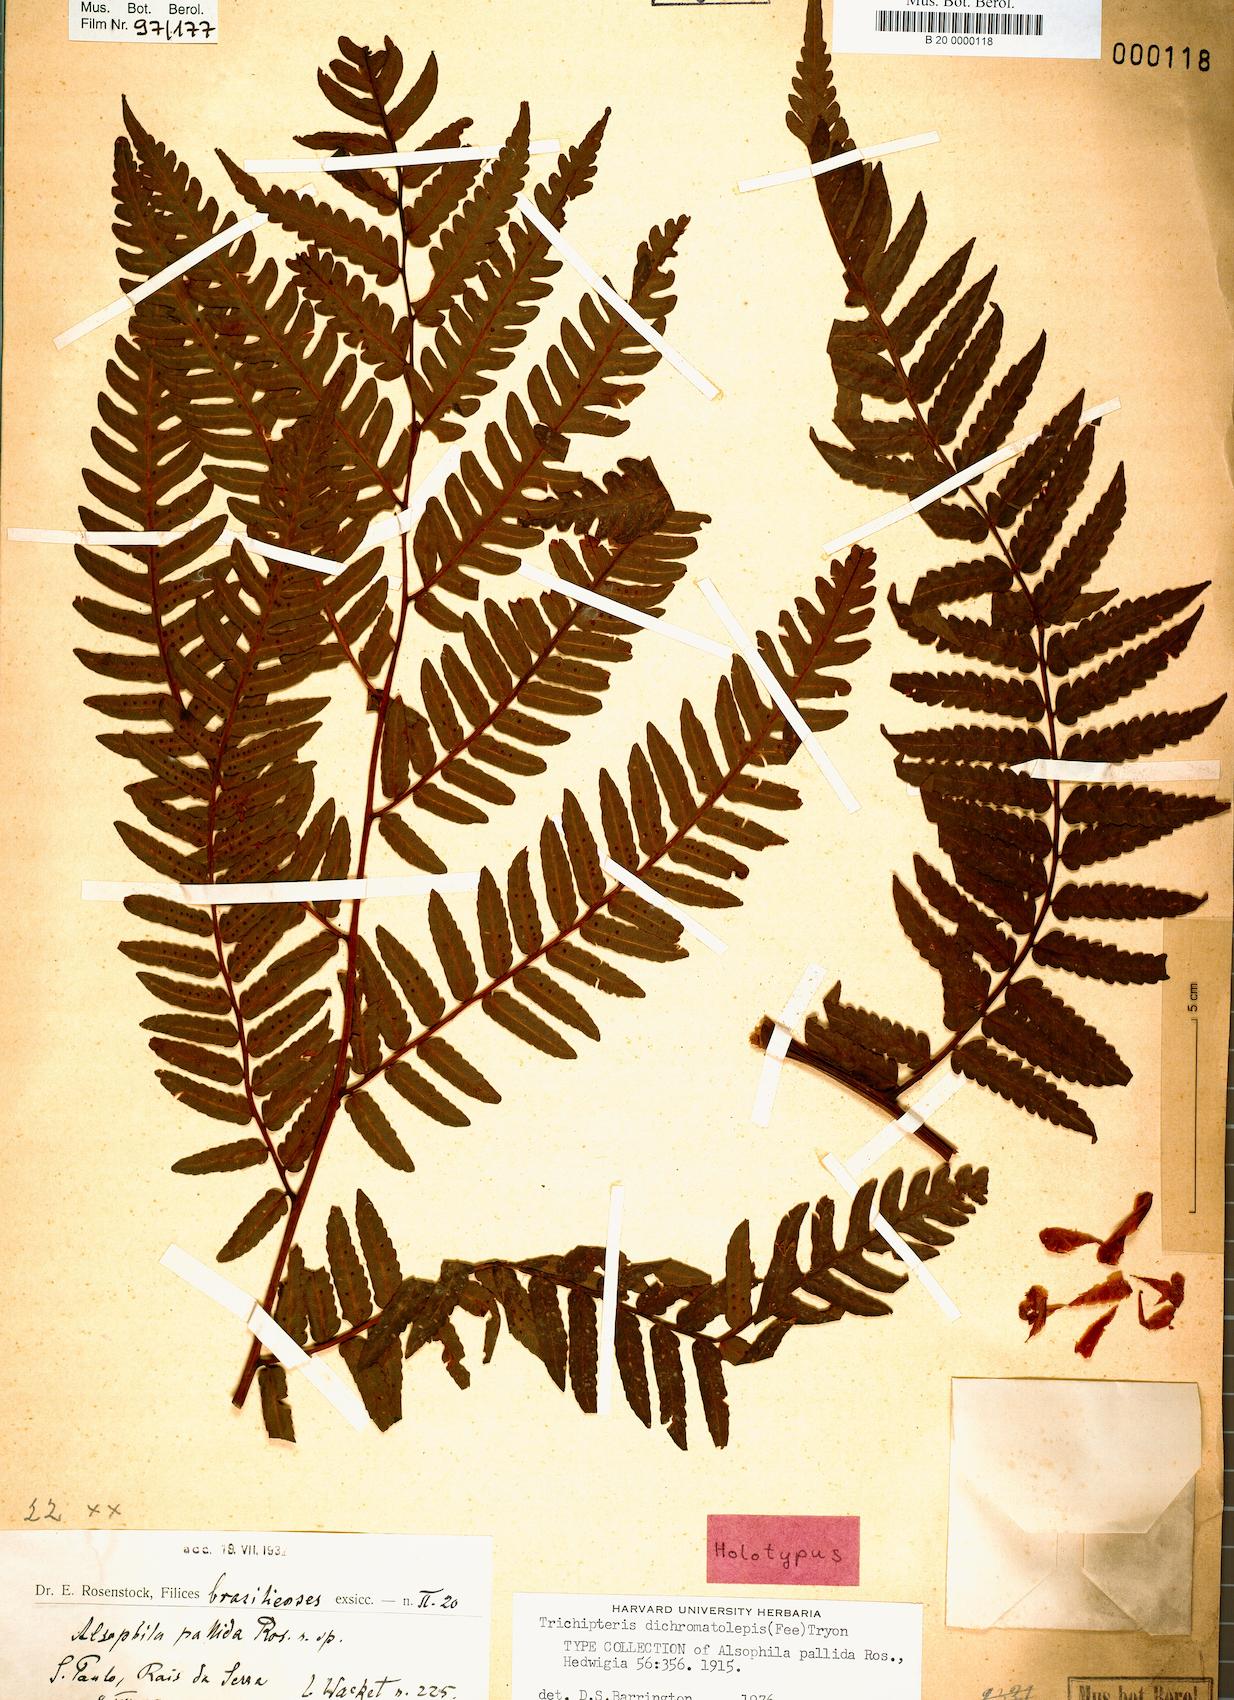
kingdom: Plantae
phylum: Tracheophyta
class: Polypodiopsida
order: Cyatheales
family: Cyatheaceae
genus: Cyathea
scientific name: Cyathea dichromatolepis
